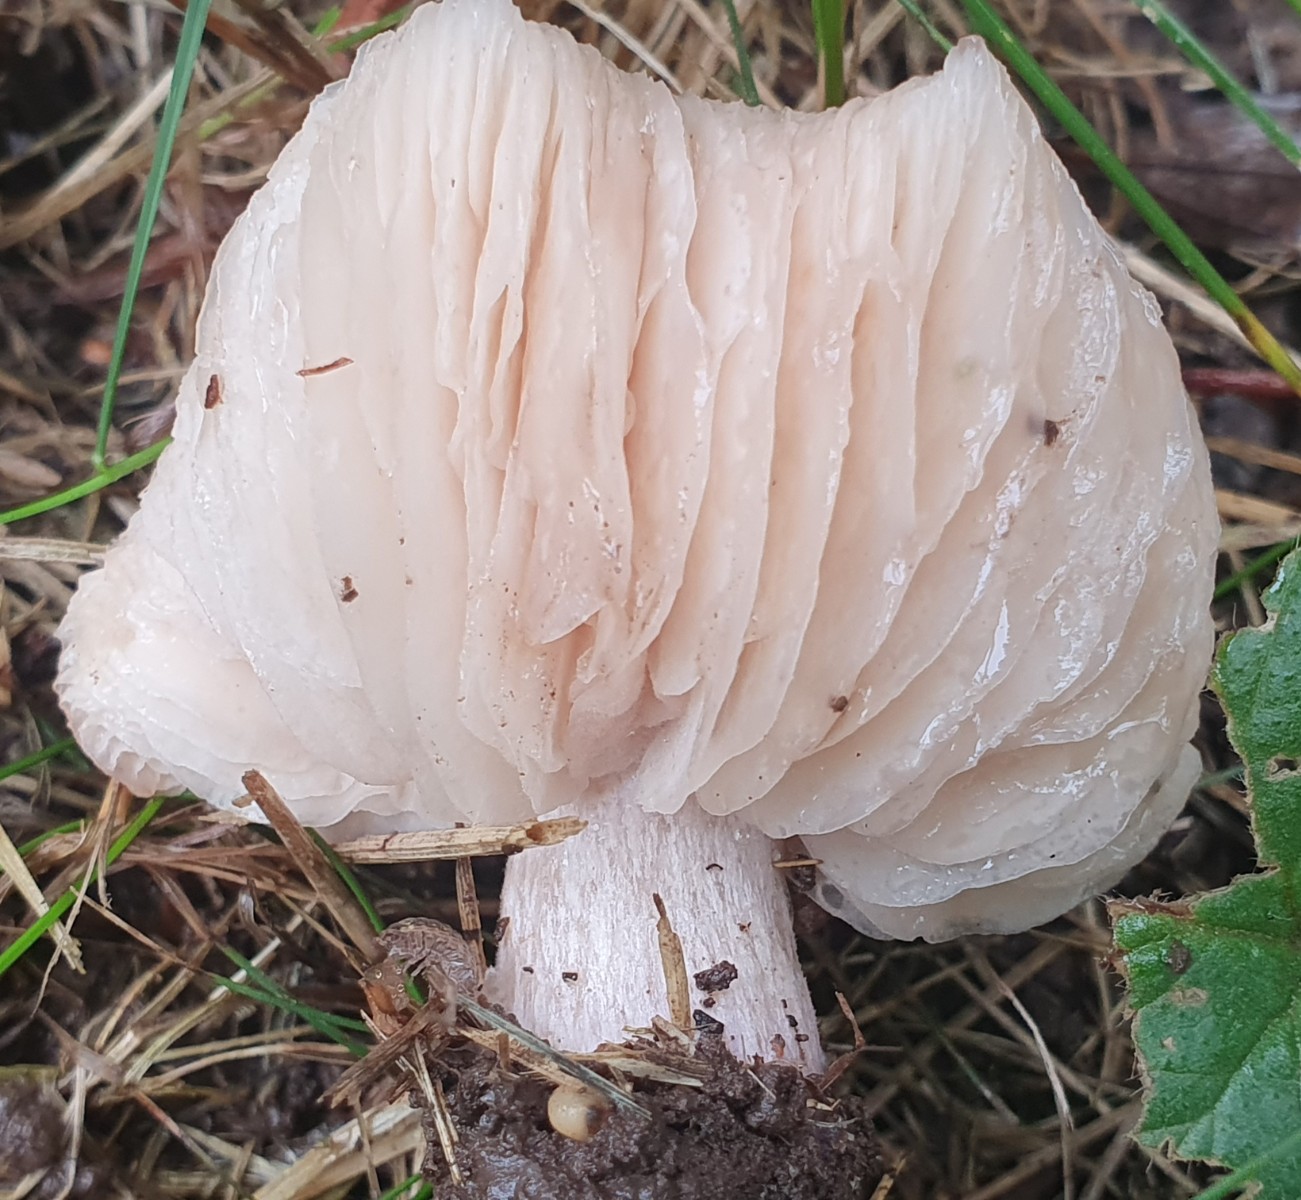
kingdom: Fungi
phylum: Basidiomycota
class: Agaricomycetes
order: Agaricales
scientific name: Agaricales
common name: champignonordenen
